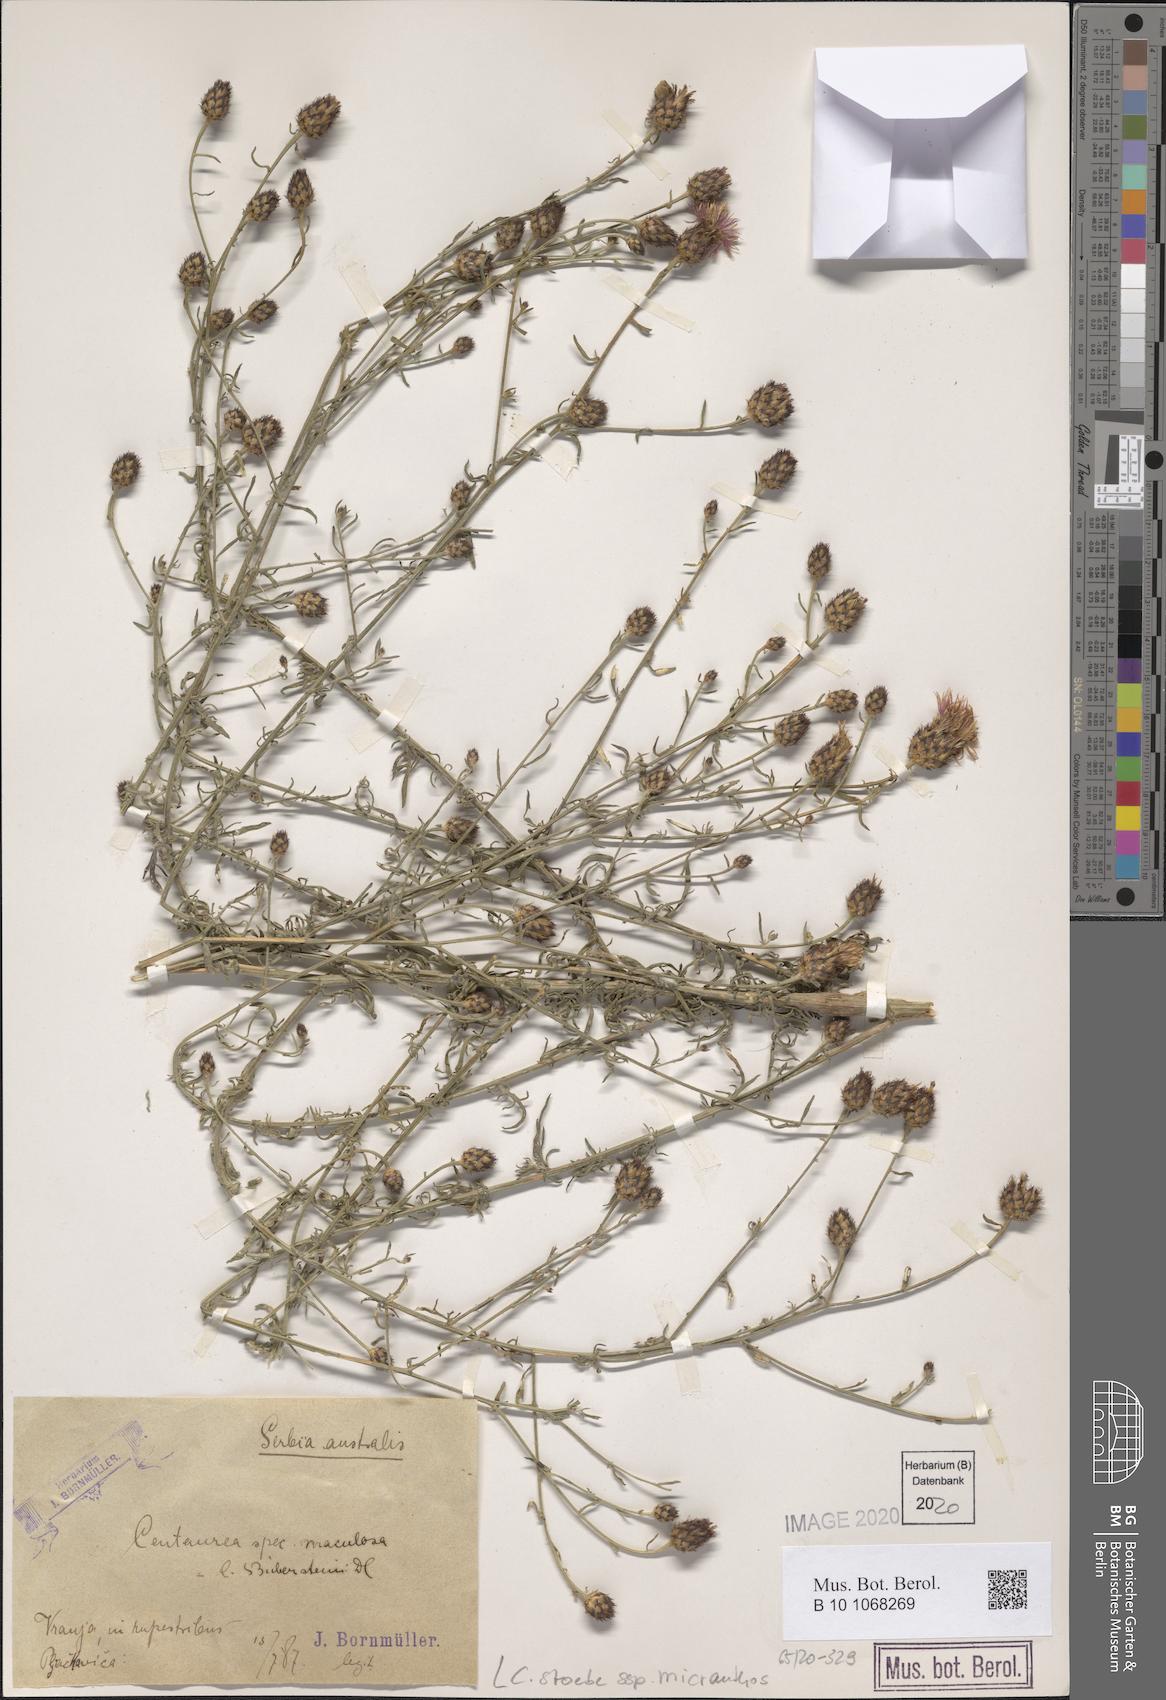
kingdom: Plantae
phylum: Tracheophyta
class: Magnoliopsida
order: Asterales
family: Asteraceae
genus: Centaurea
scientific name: Centaurea australis
